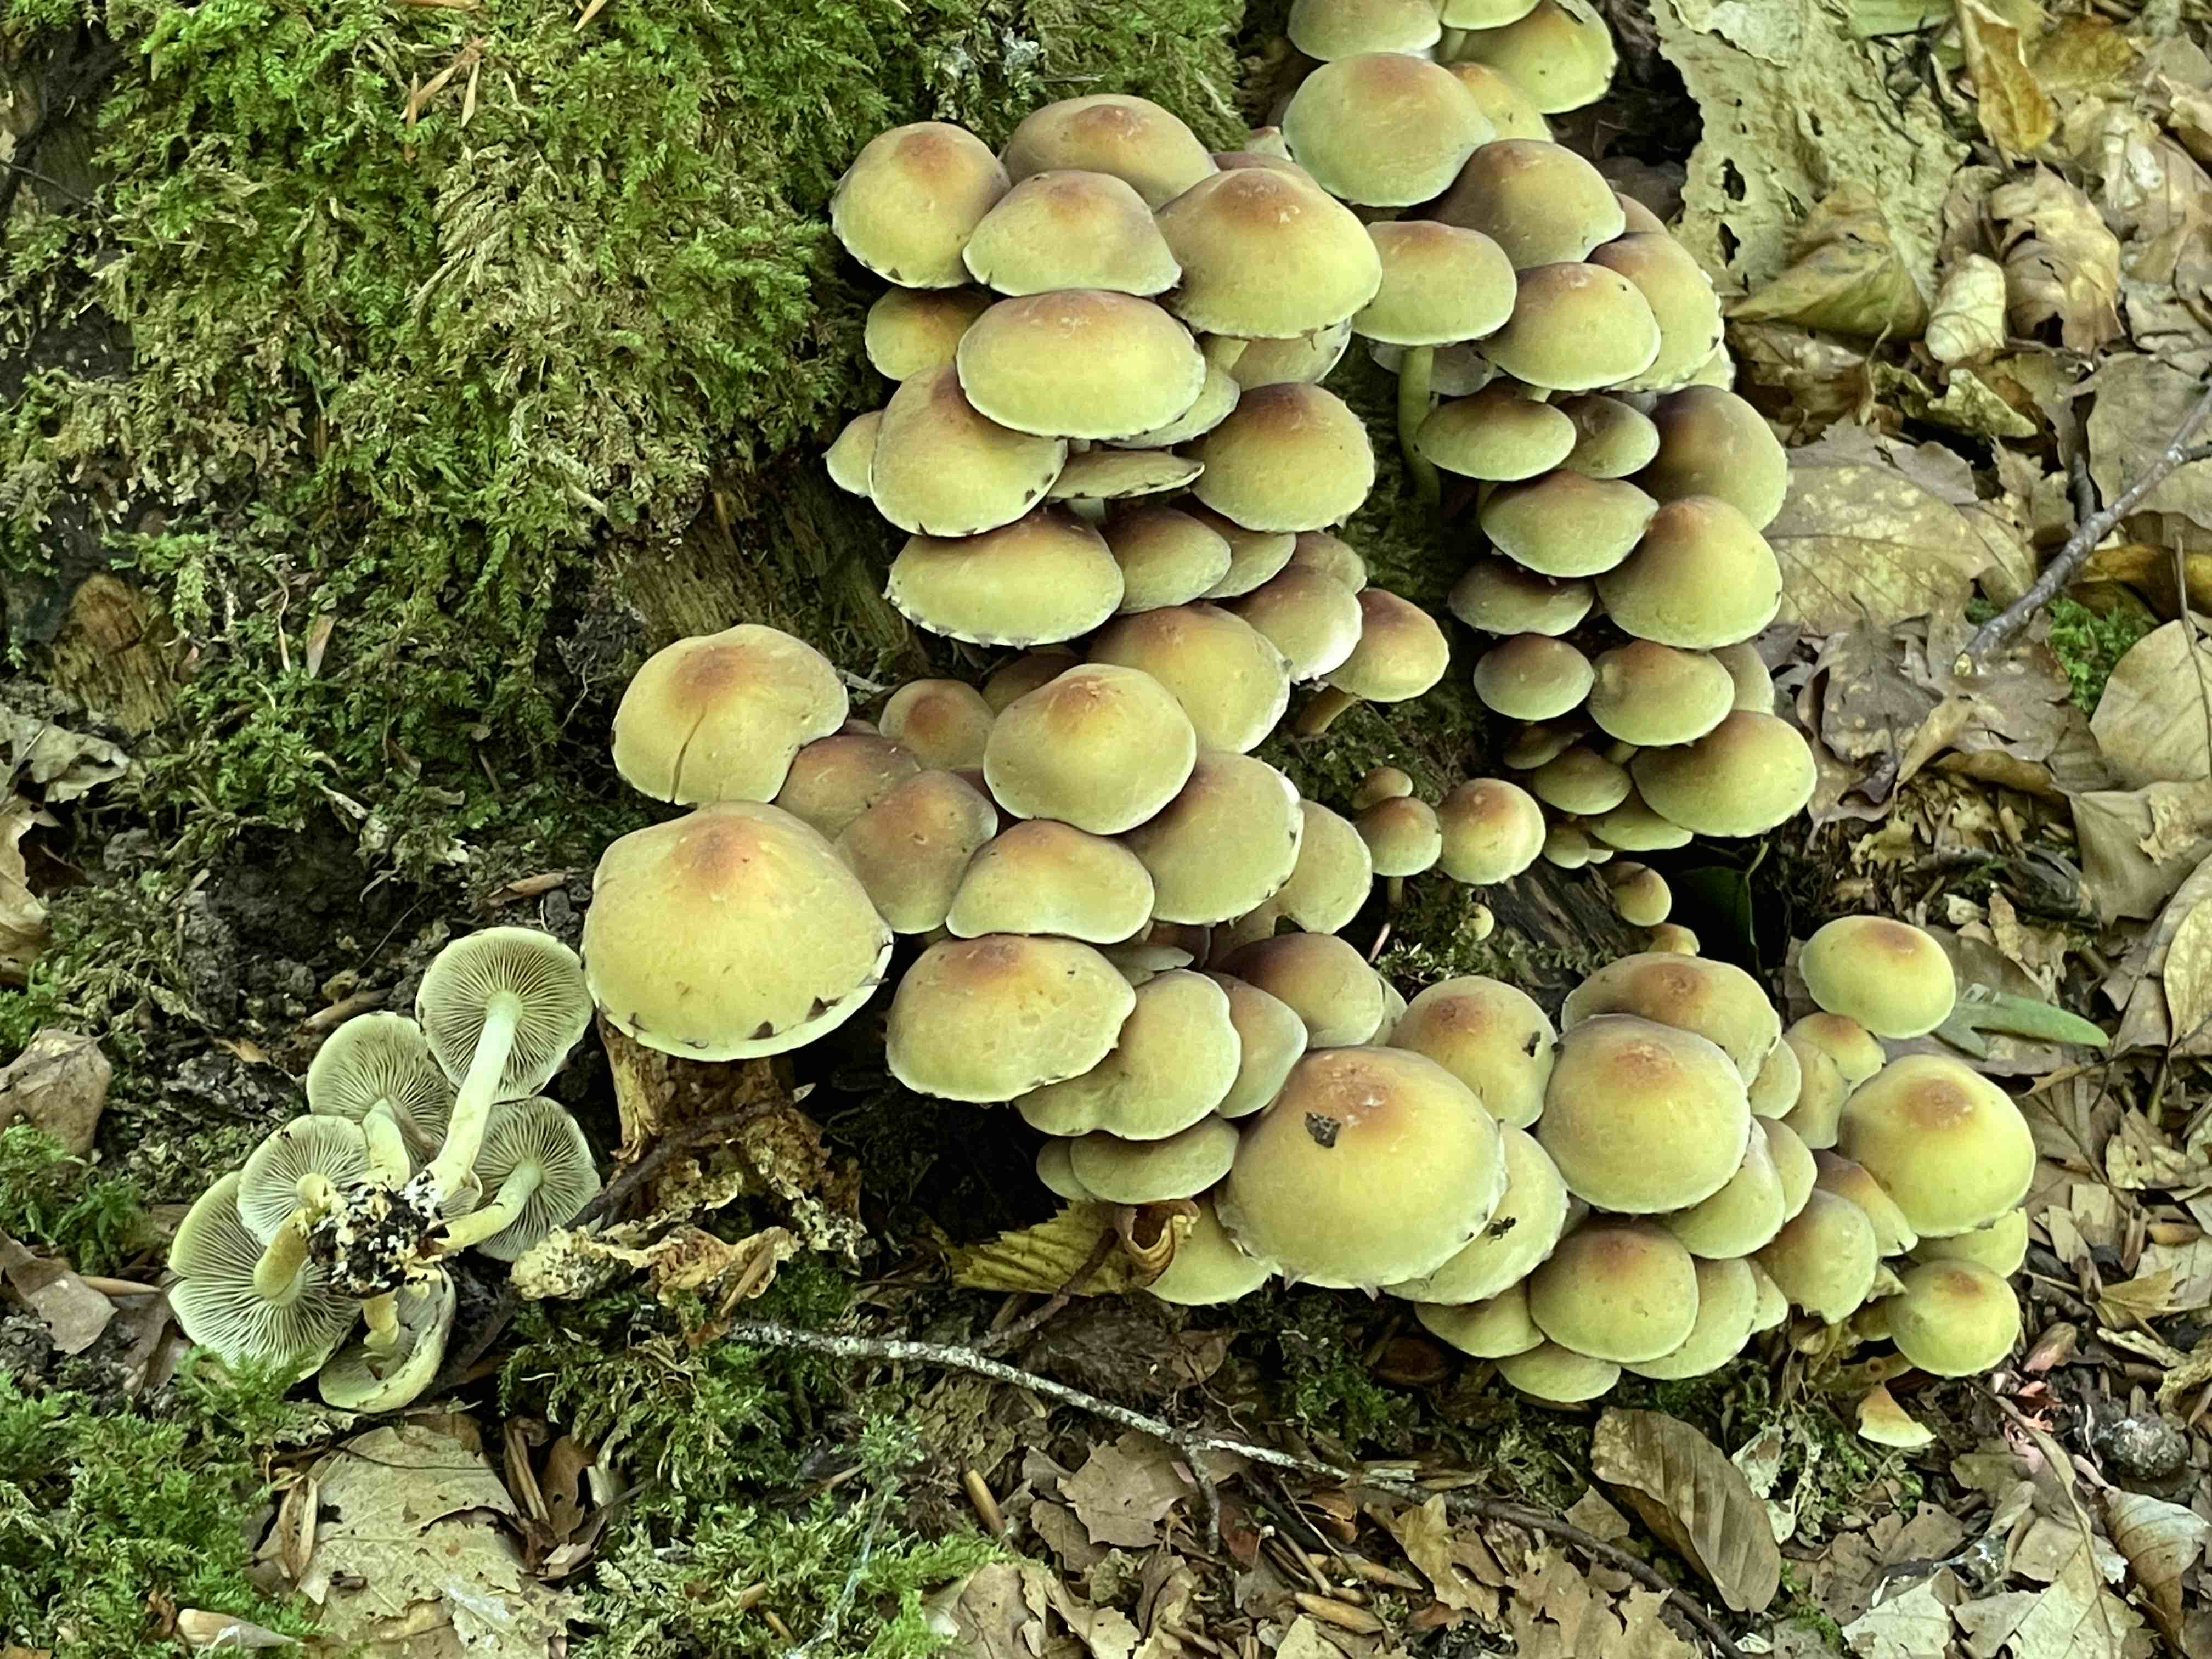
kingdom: Fungi
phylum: Basidiomycota
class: Agaricomycetes
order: Agaricales
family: Strophariaceae
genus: Hypholoma
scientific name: Hypholoma fasciculare
